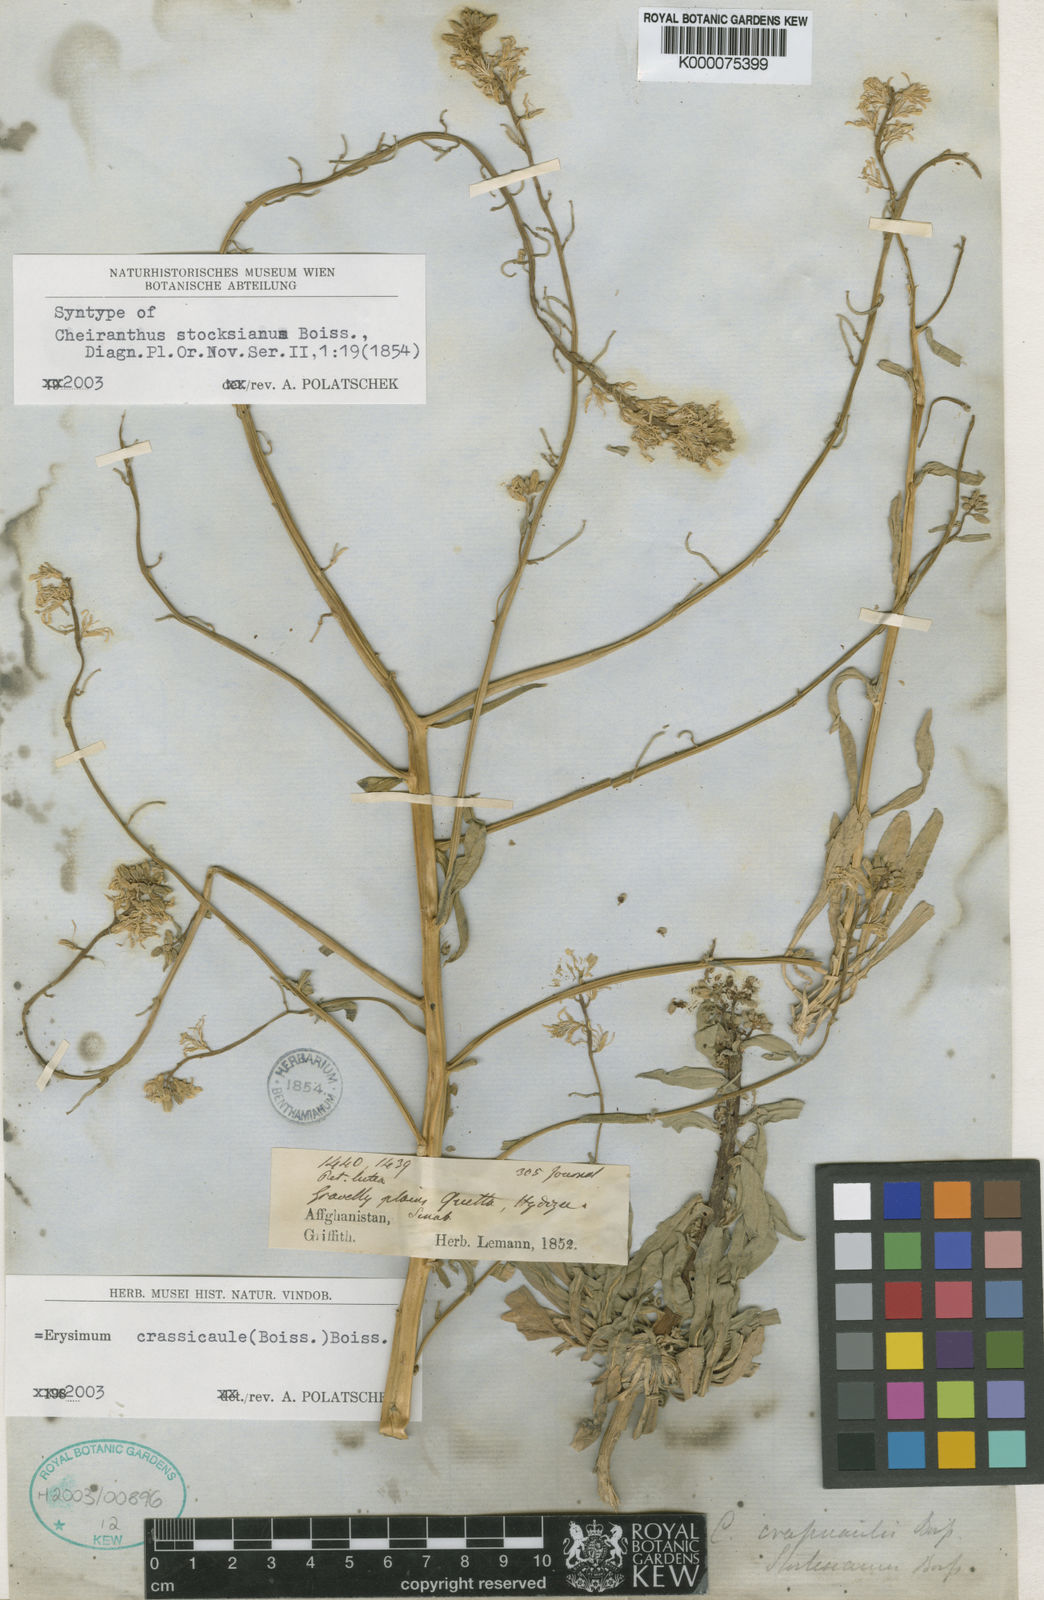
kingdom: Plantae
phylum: Tracheophyta
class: Magnoliopsida
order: Brassicales
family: Brassicaceae
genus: Erysimum
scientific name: Erysimum crassicaule
